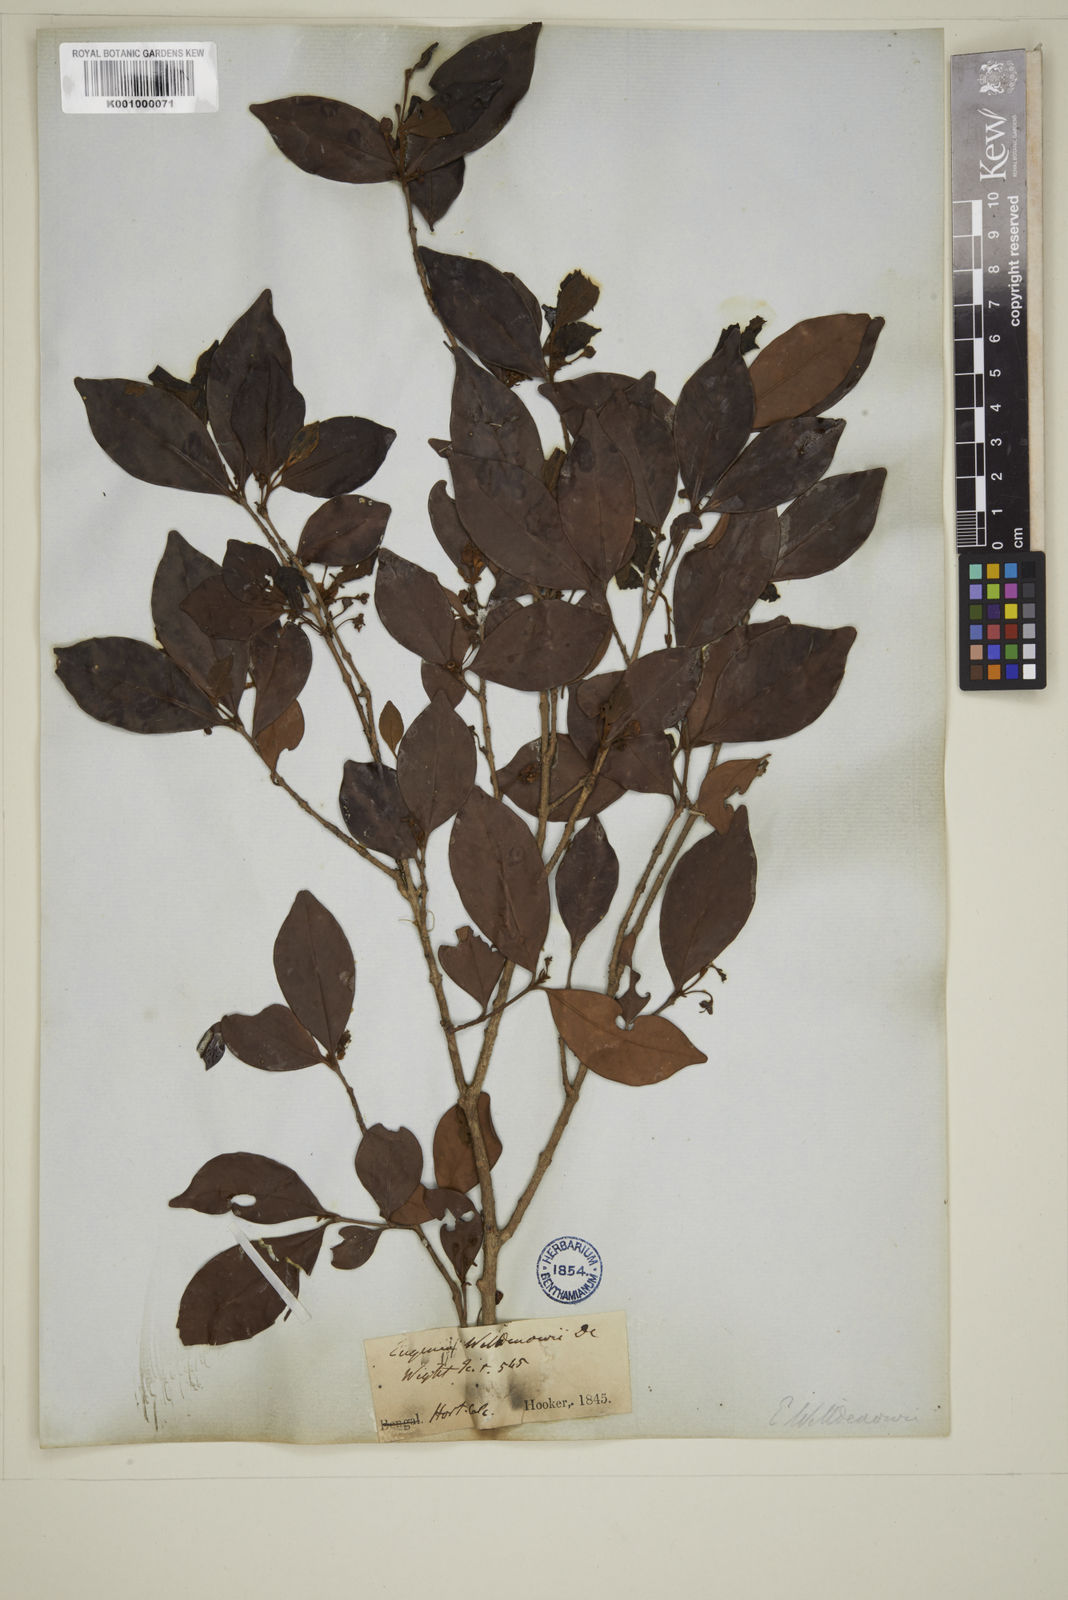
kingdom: Plantae
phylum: Tracheophyta
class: Magnoliopsida
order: Myrtales
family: Myrtaceae
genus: Myrcia
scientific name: Myrcia bracteata
